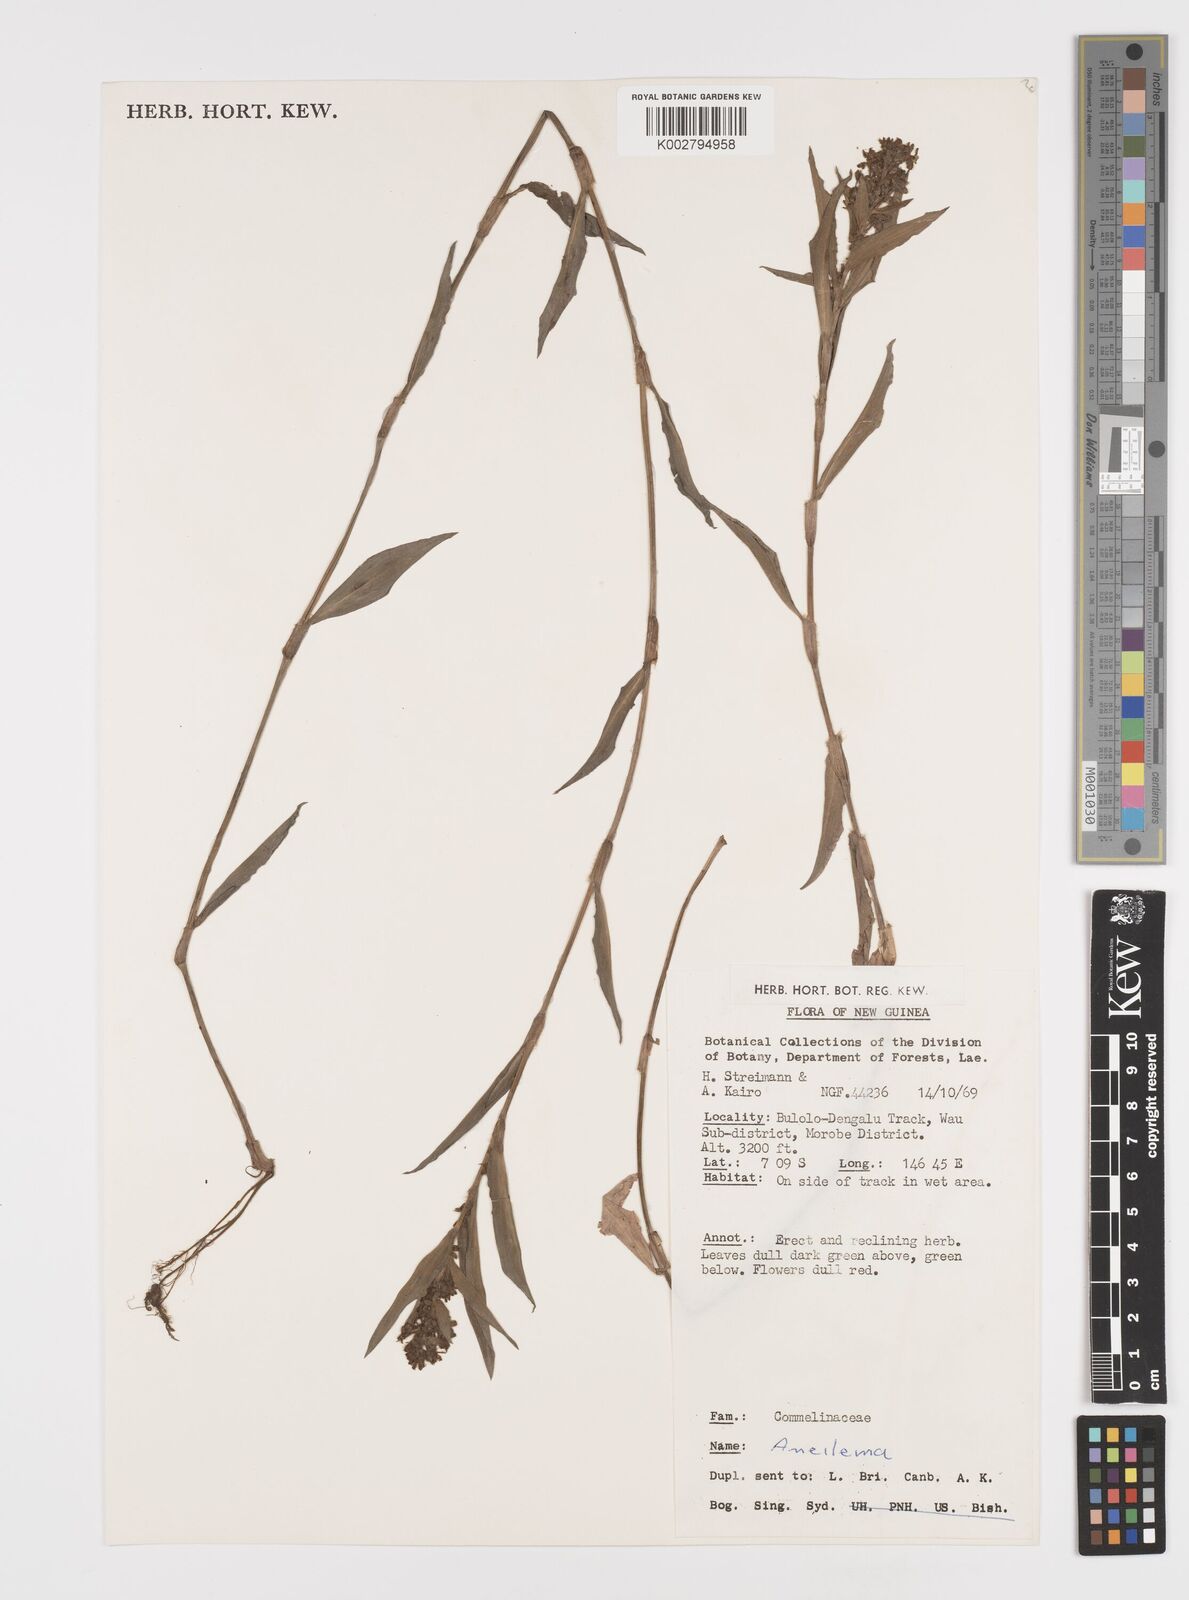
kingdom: Plantae
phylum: Tracheophyta
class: Liliopsida
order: Commelinales
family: Commelinaceae
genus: Floscopa
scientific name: Floscopa
